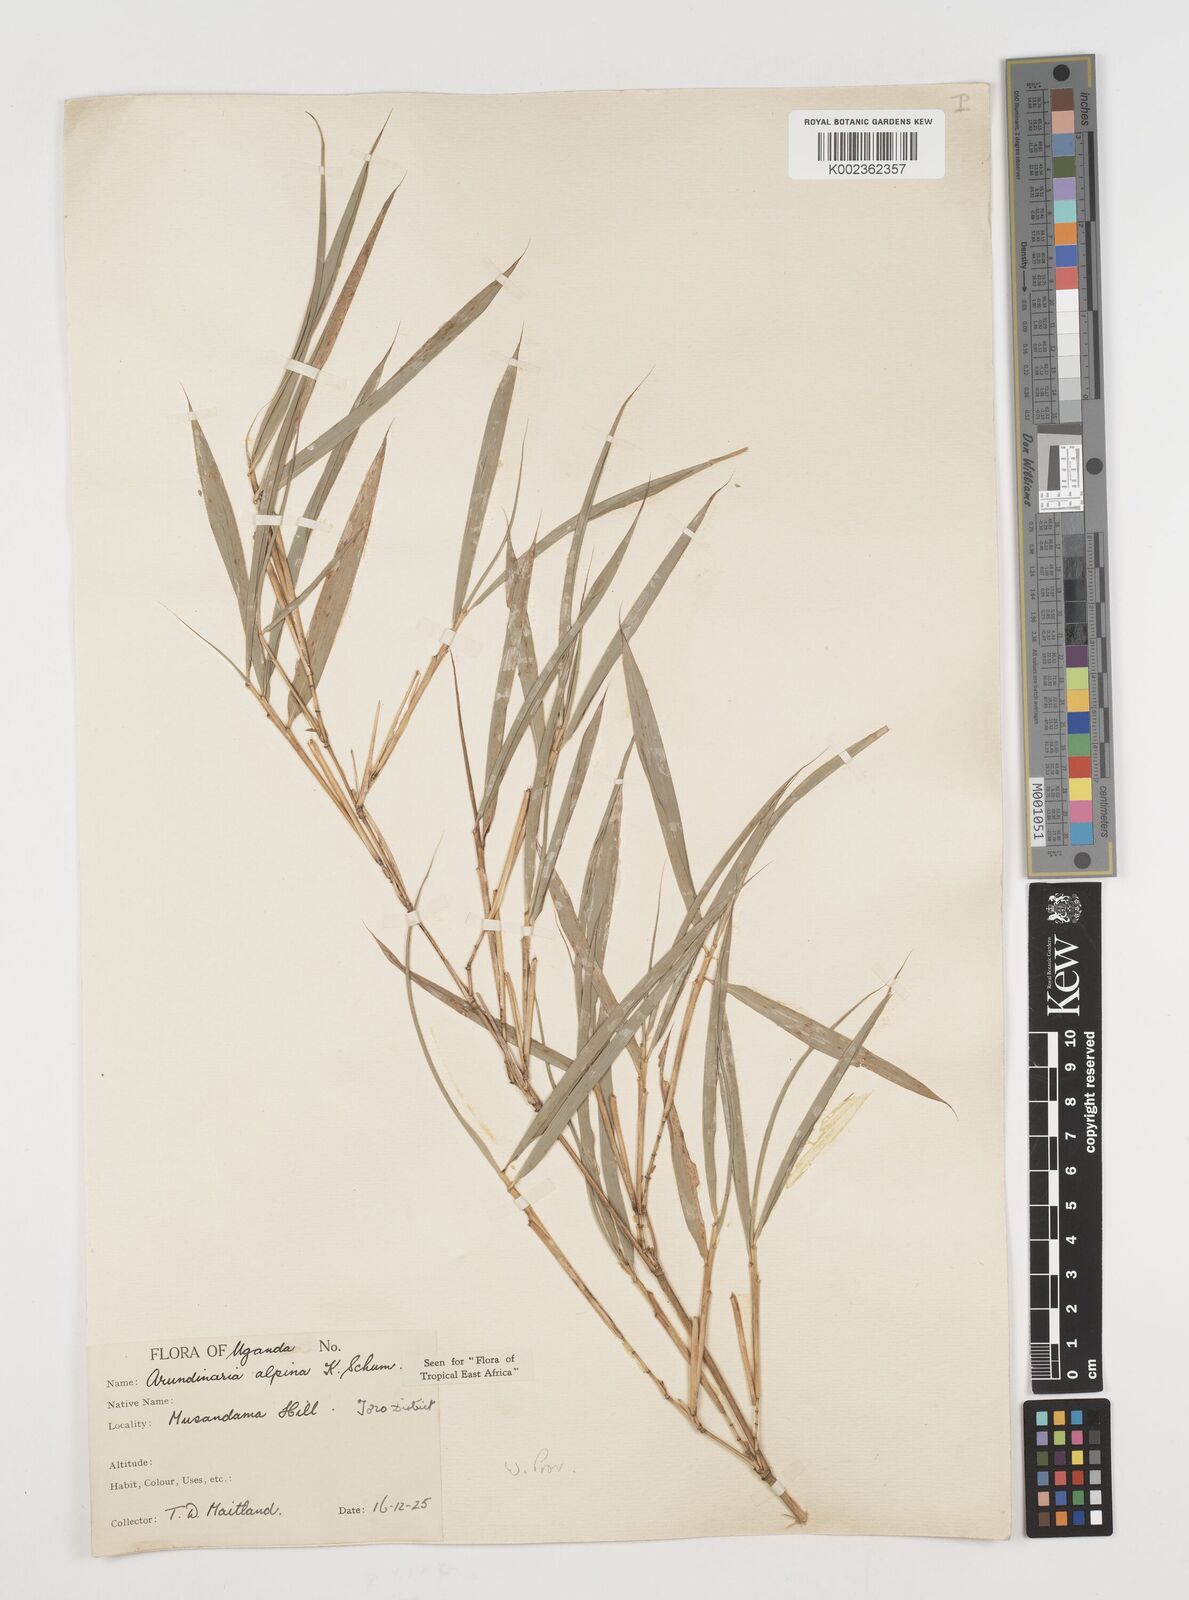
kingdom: Plantae
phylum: Tracheophyta
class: Liliopsida
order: Poales
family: Poaceae
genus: Oldeania
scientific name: Oldeania alpina
